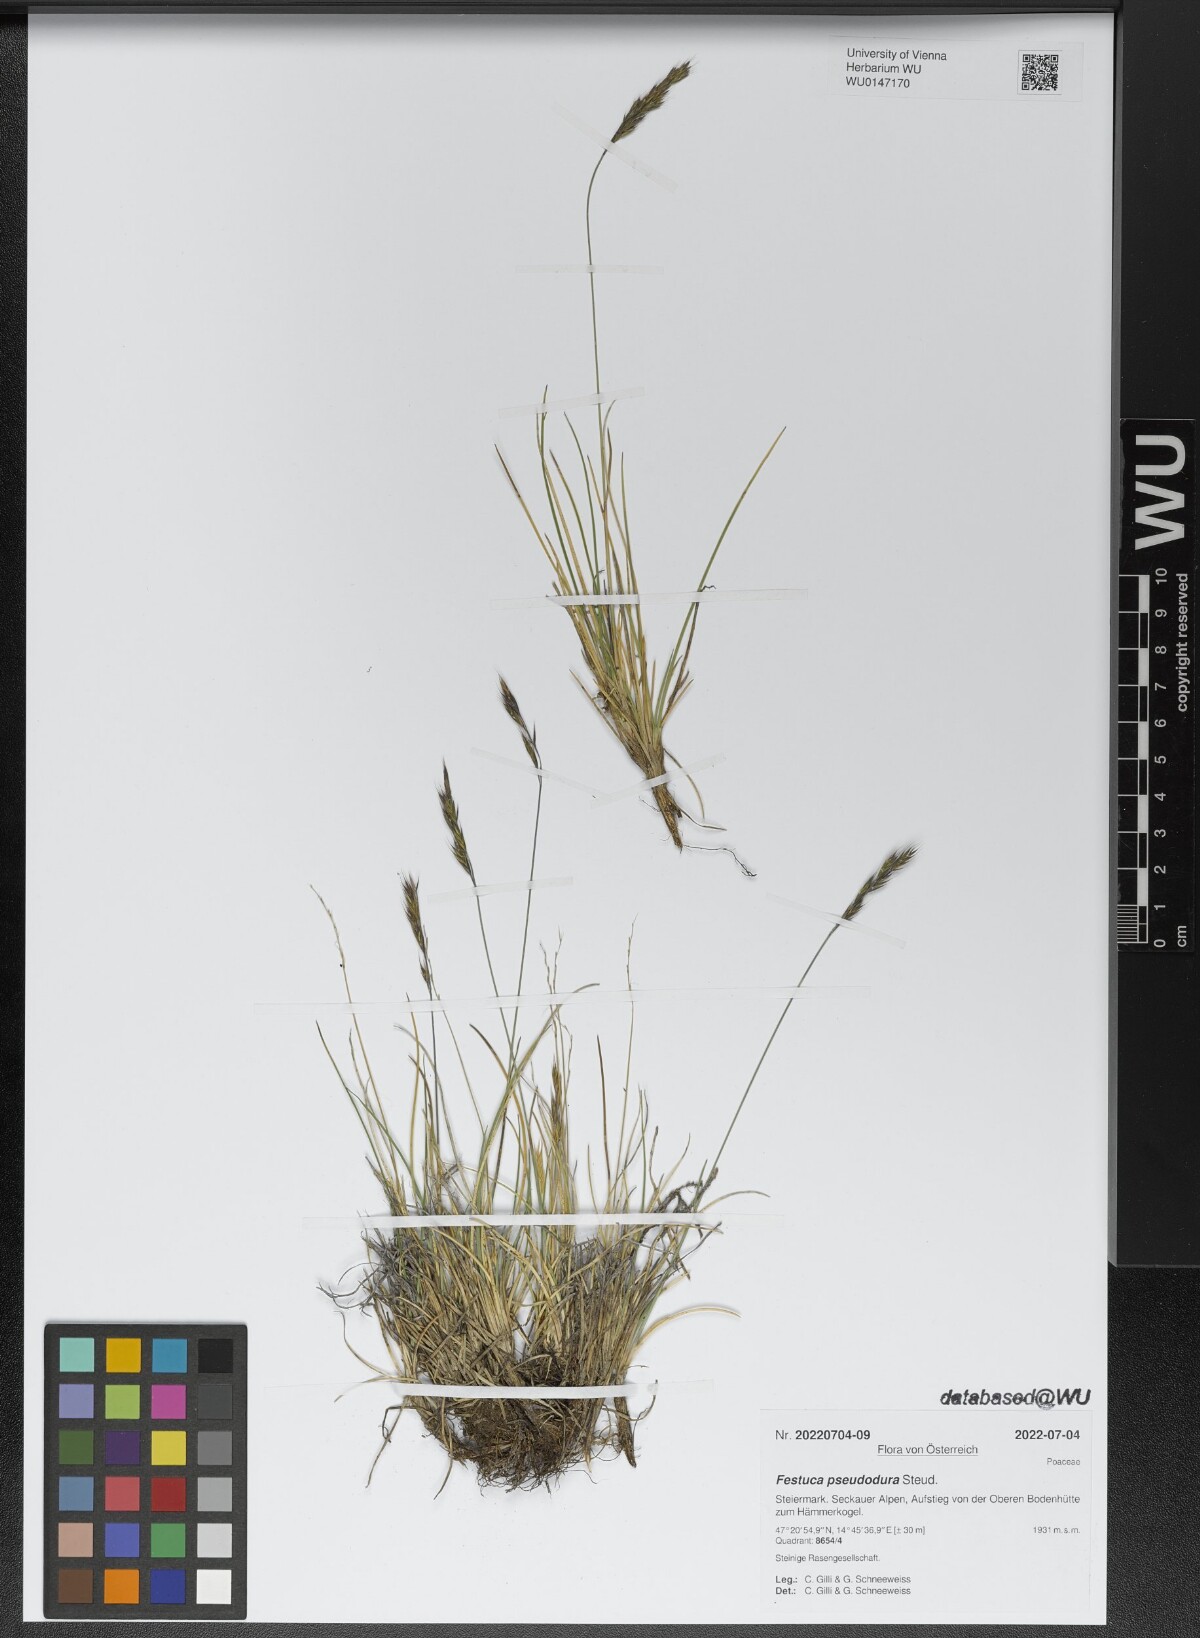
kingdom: Plantae
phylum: Tracheophyta
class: Liliopsida
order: Poales
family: Poaceae
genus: Festuca
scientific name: Festuca pseudodura
